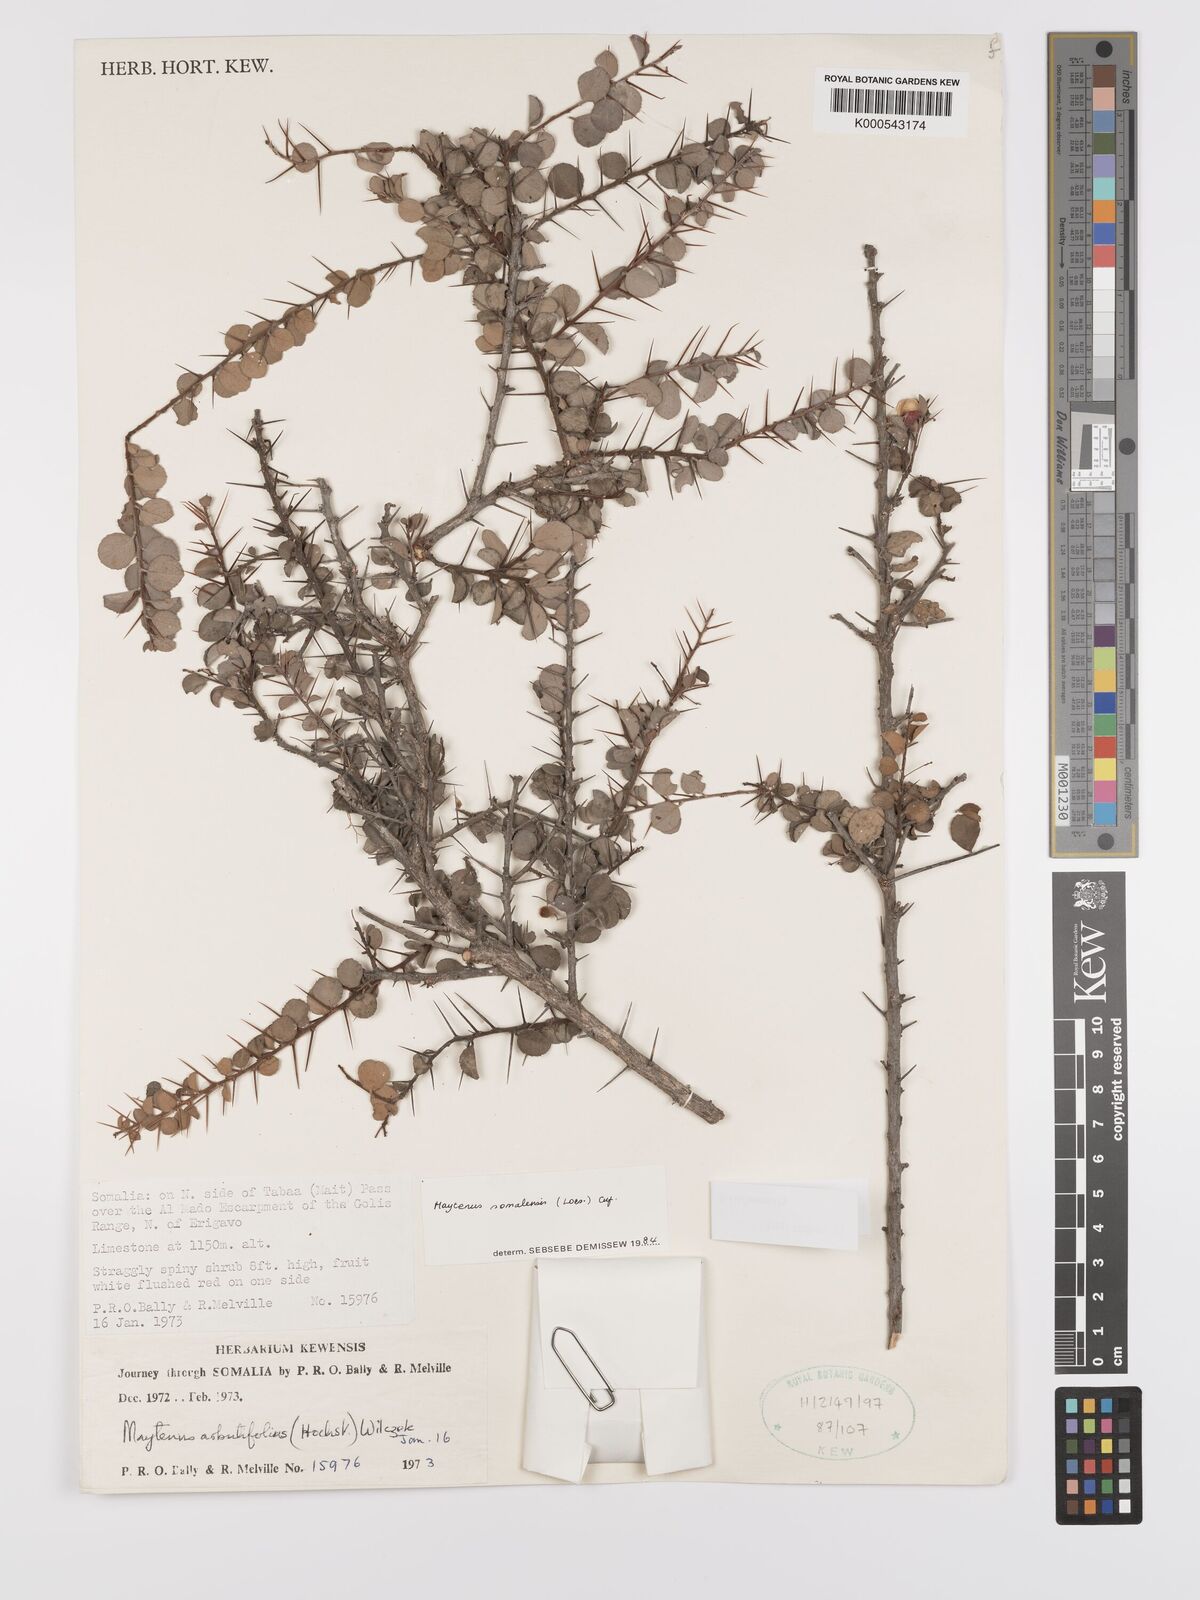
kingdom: Plantae
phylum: Tracheophyta
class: Magnoliopsida
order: Celastrales
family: Celastraceae
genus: Gymnosporia
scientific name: Gymnosporia somalensis
